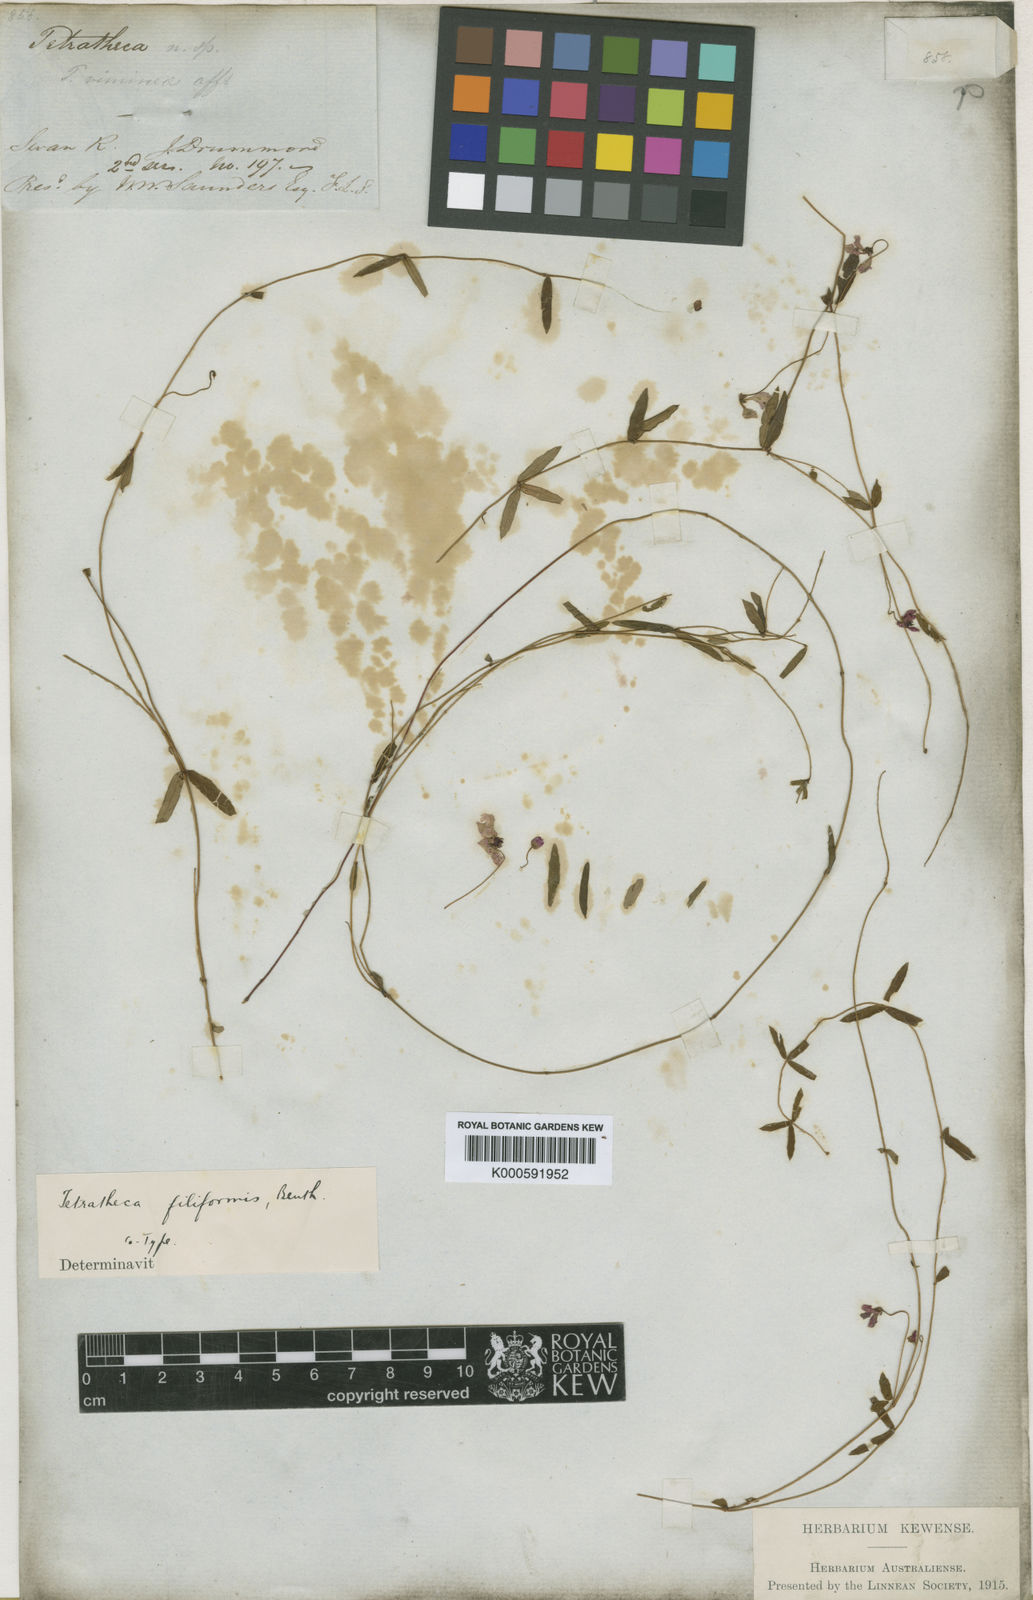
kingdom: Plantae
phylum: Tracheophyta
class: Magnoliopsida
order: Oxalidales
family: Elaeocarpaceae
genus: Tetratheca
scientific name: Tetratheca filiformis
